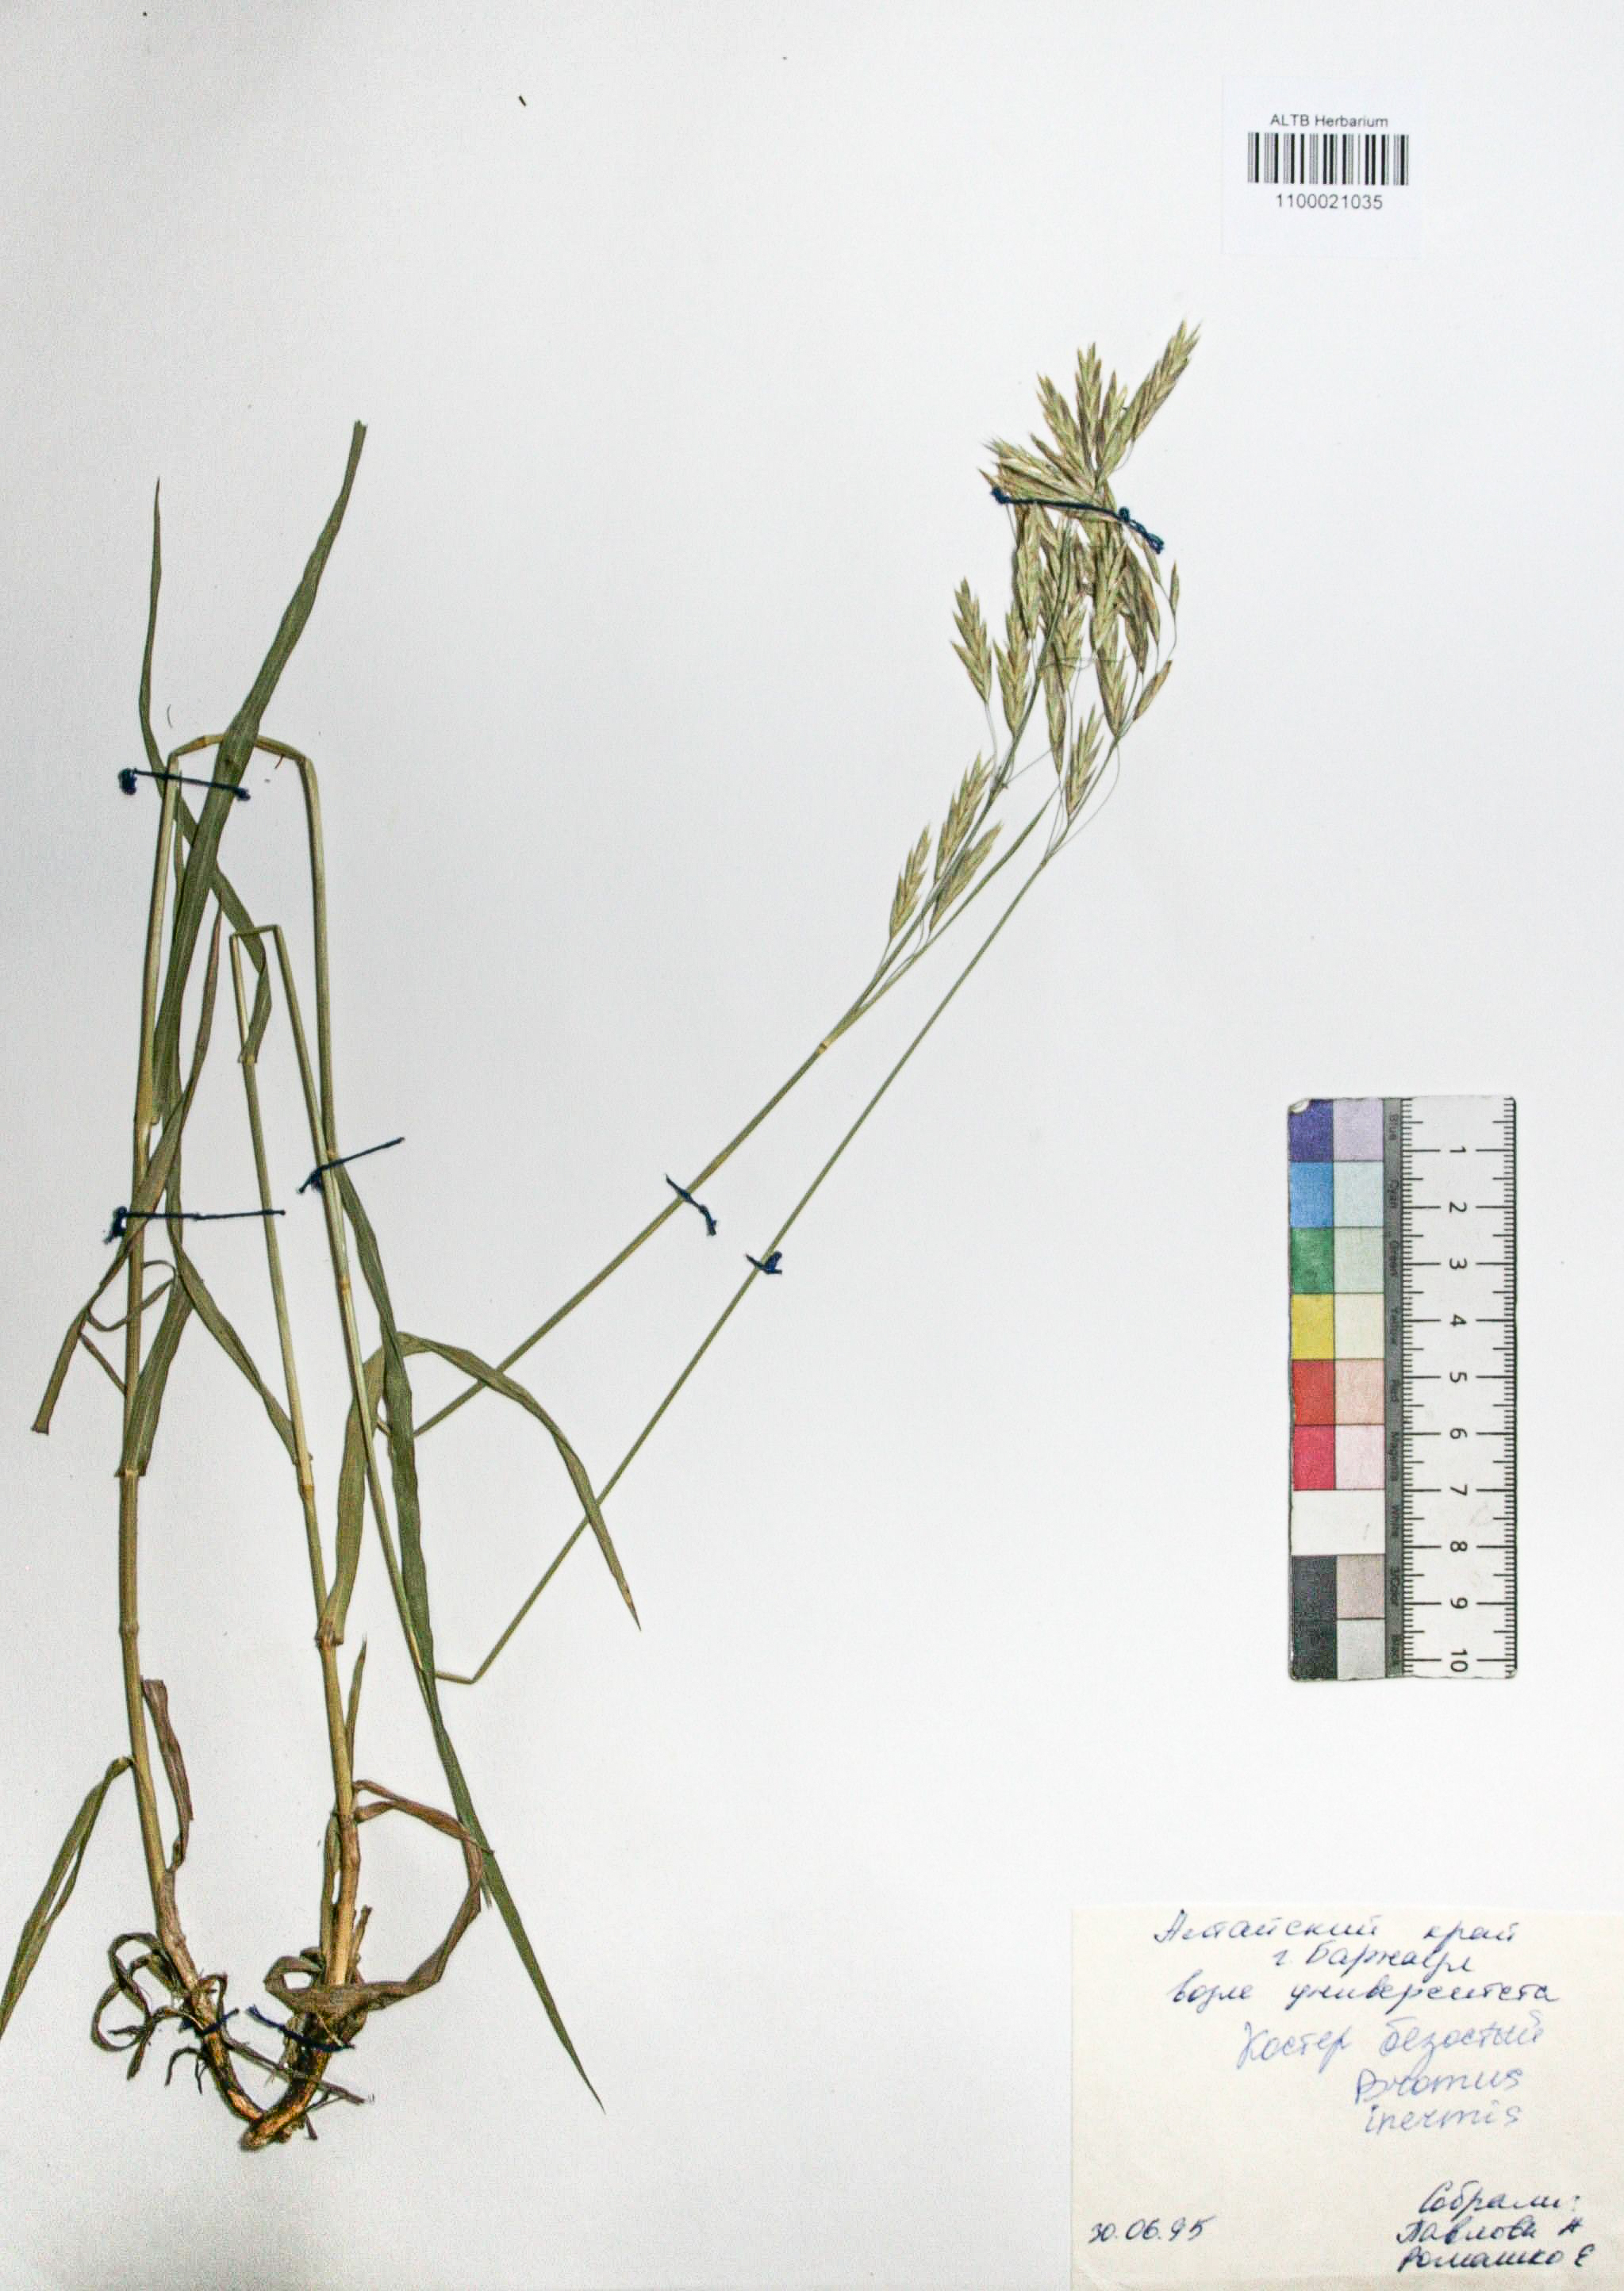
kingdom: Plantae
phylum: Tracheophyta
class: Liliopsida
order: Poales
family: Poaceae
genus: Bromus
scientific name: Bromus inermis
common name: Smooth brome
